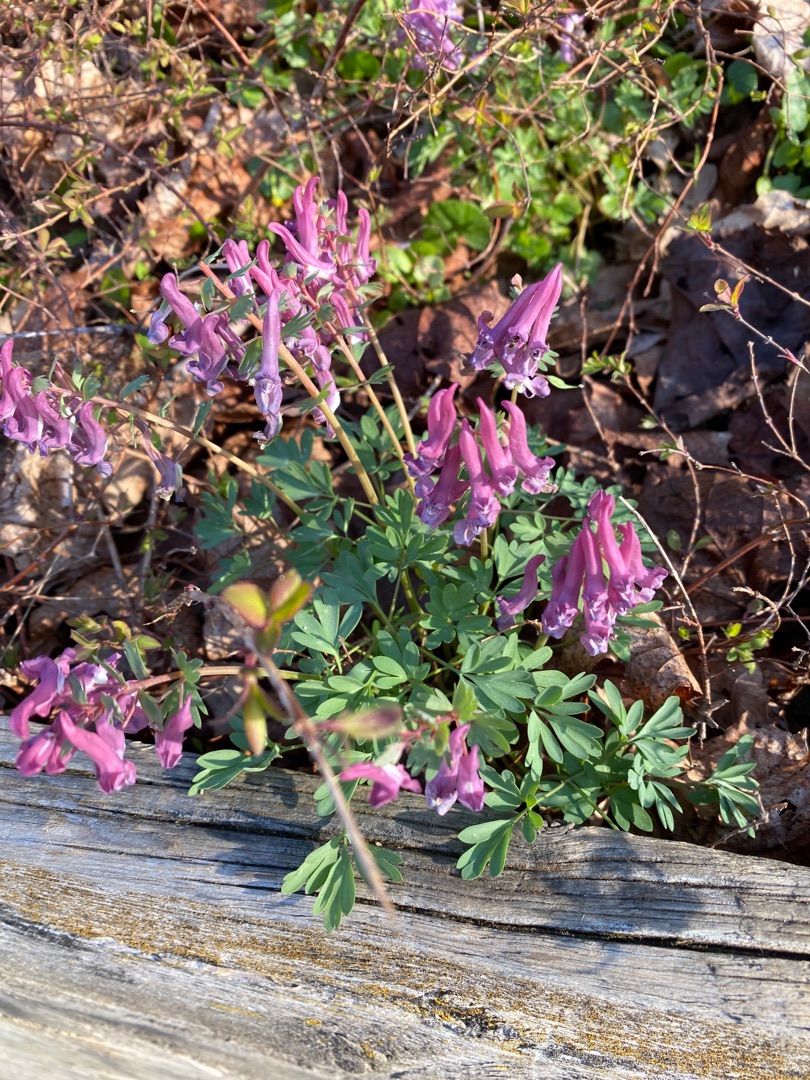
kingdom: Plantae
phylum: Tracheophyta
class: Magnoliopsida
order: Ranunculales
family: Papaveraceae
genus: Corydalis
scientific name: Corydalis solida
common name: Langstilket lærkespore
